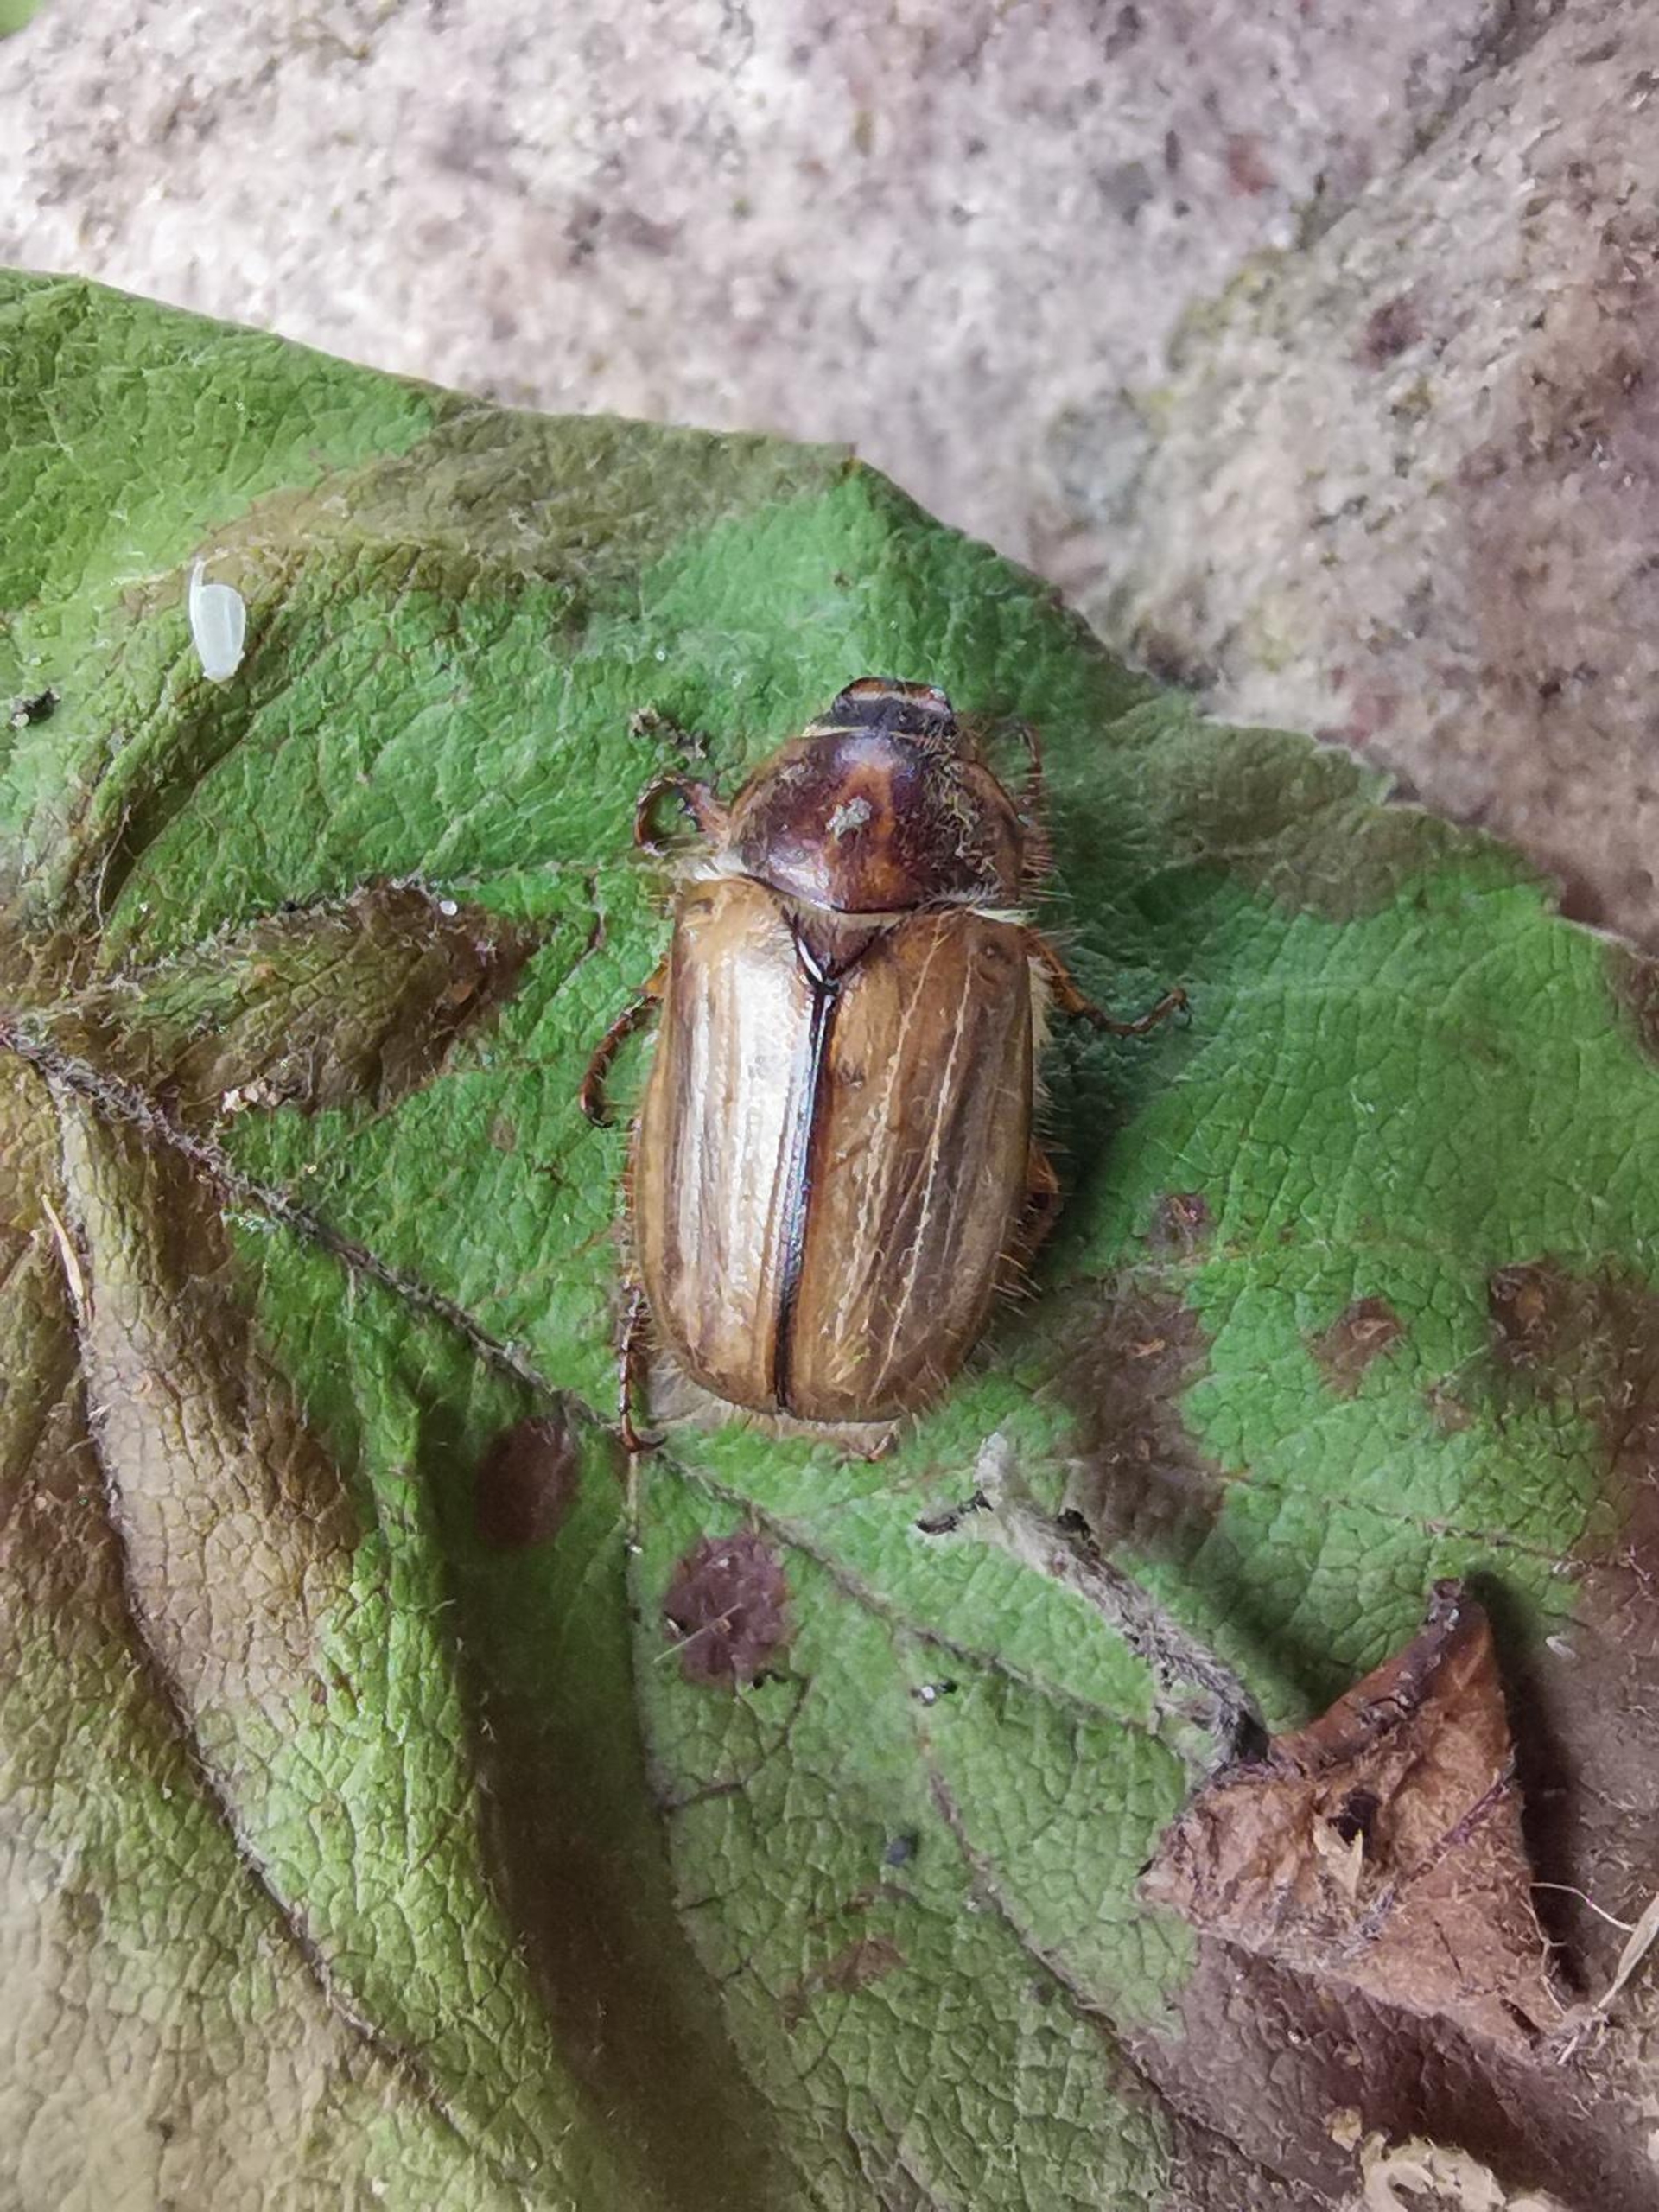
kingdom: Animalia
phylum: Arthropoda
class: Insecta
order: Coleoptera
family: Scarabaeidae
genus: Amphimallon
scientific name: Amphimallon solstitiale
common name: Sankthansoldenborre
